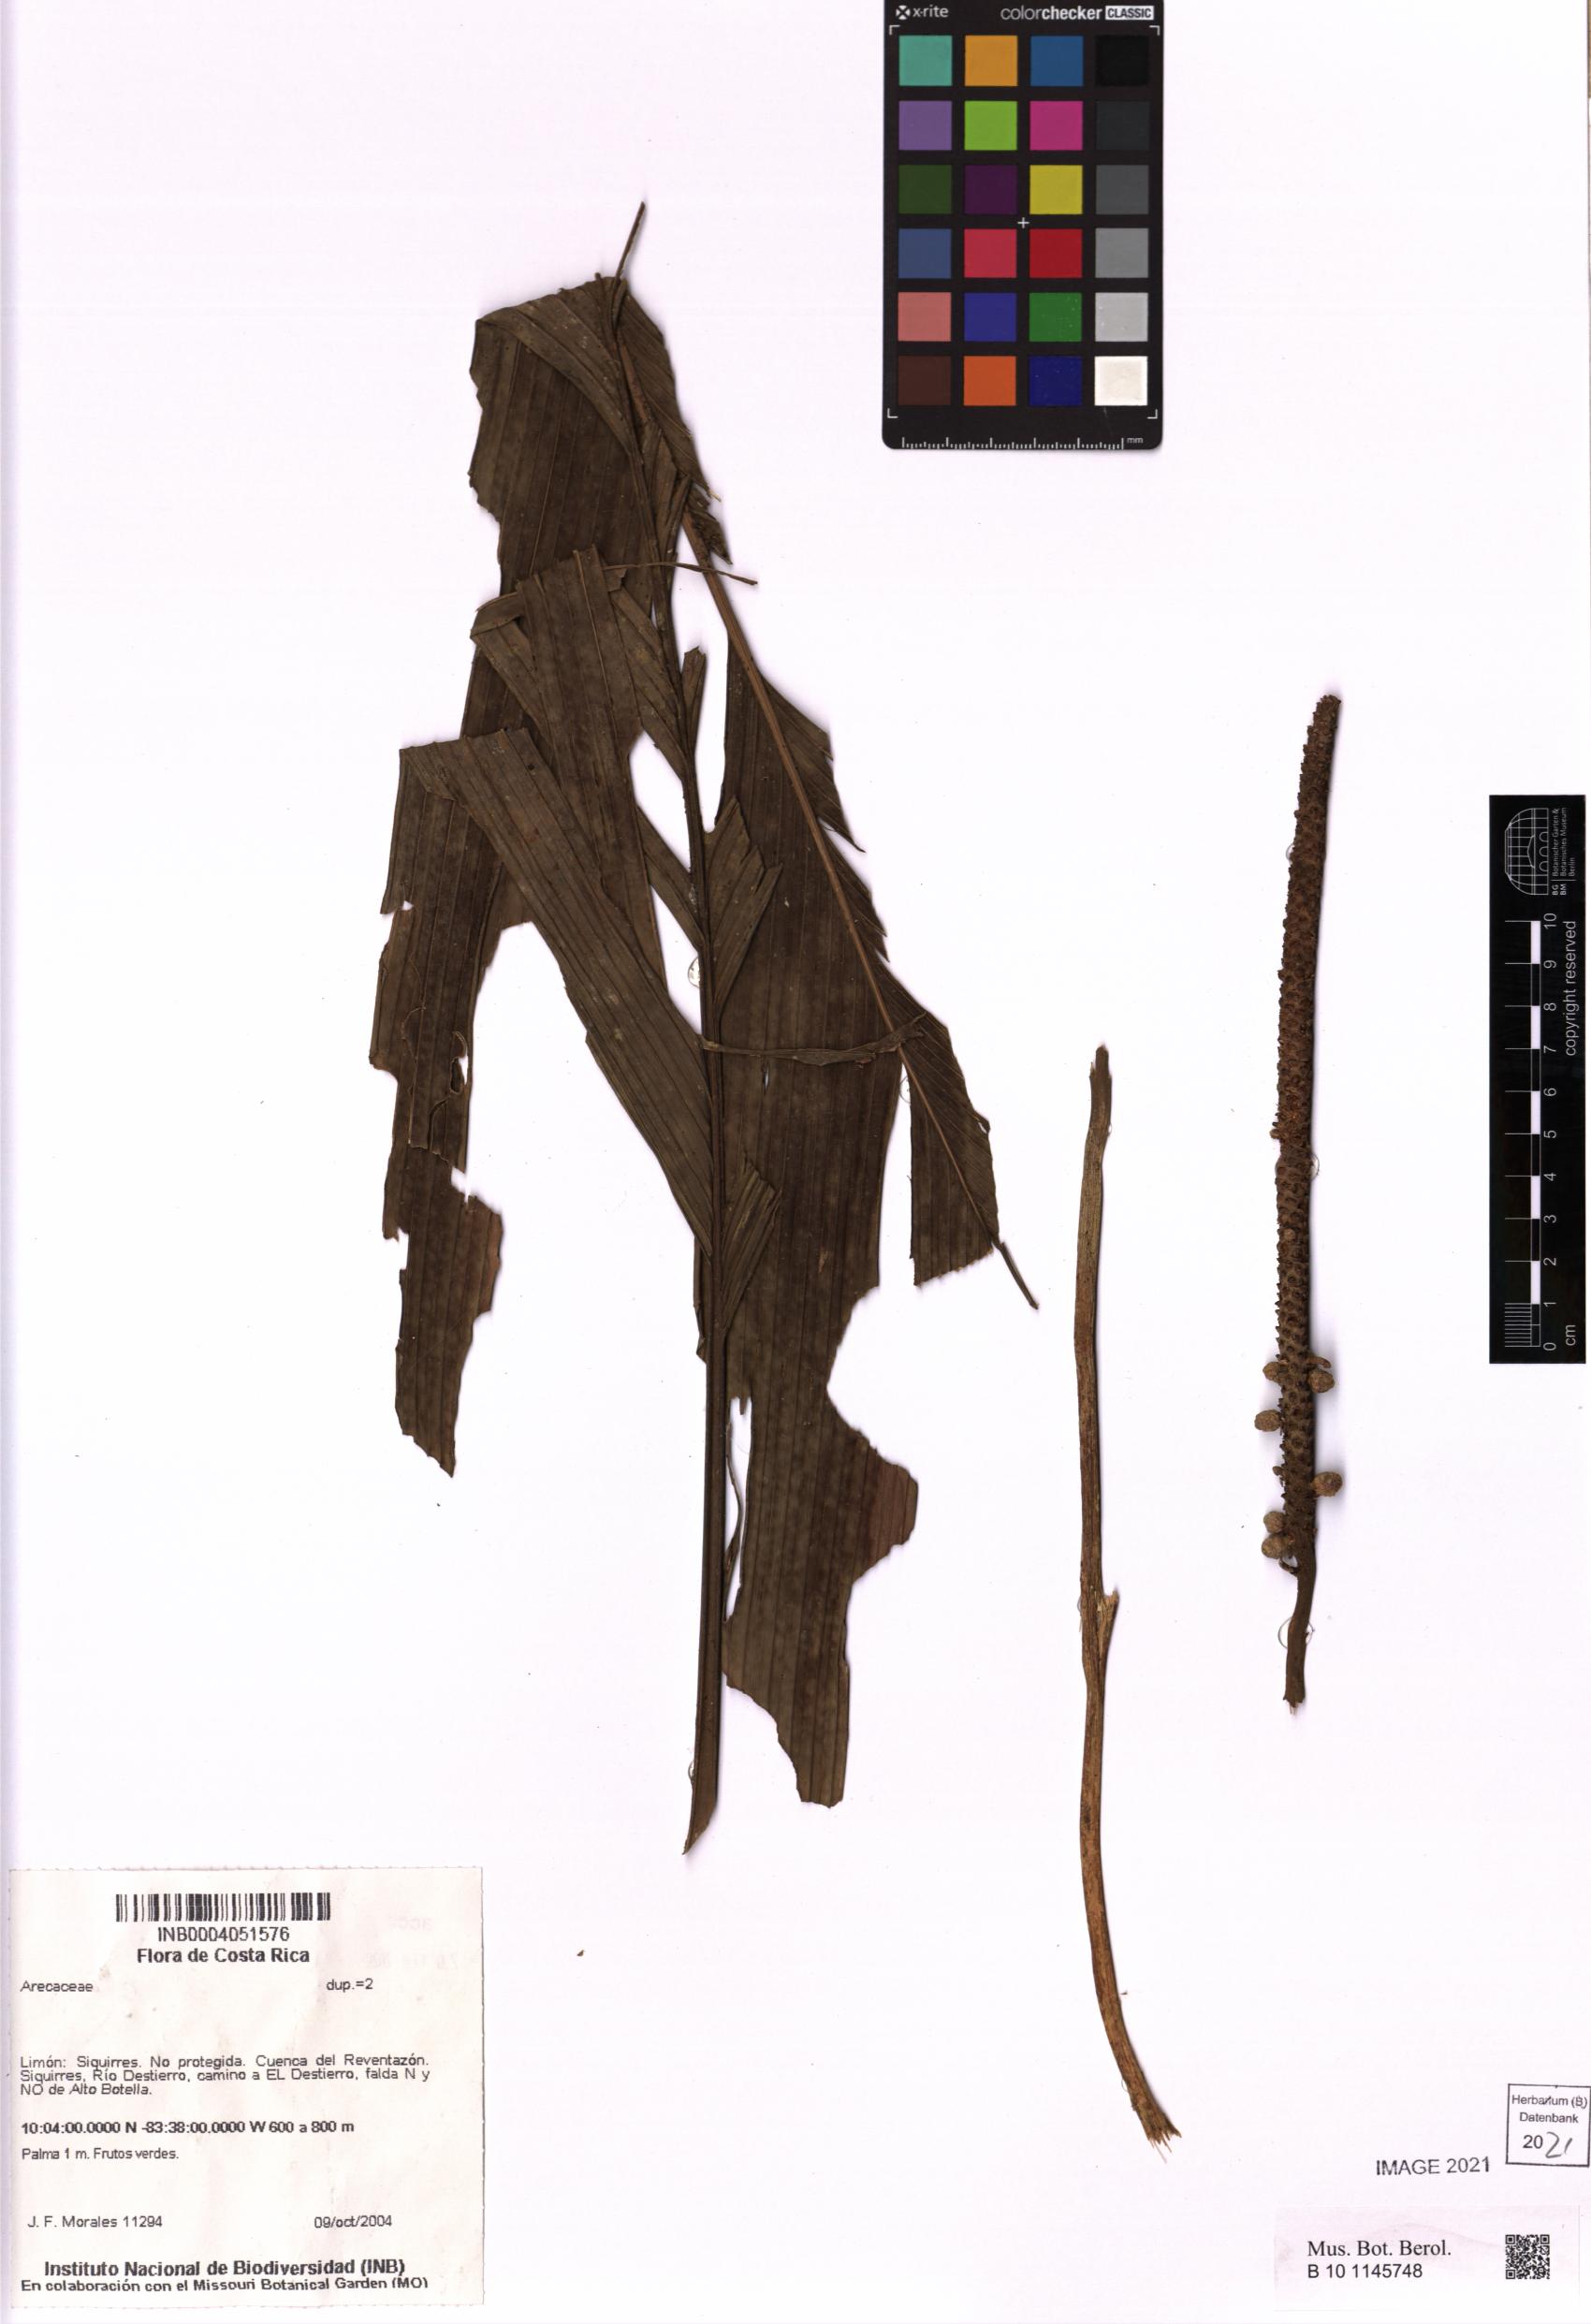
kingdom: Plantae
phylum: Tracheophyta
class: Liliopsida
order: Arecales
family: Arecaceae
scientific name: Arecaceae
